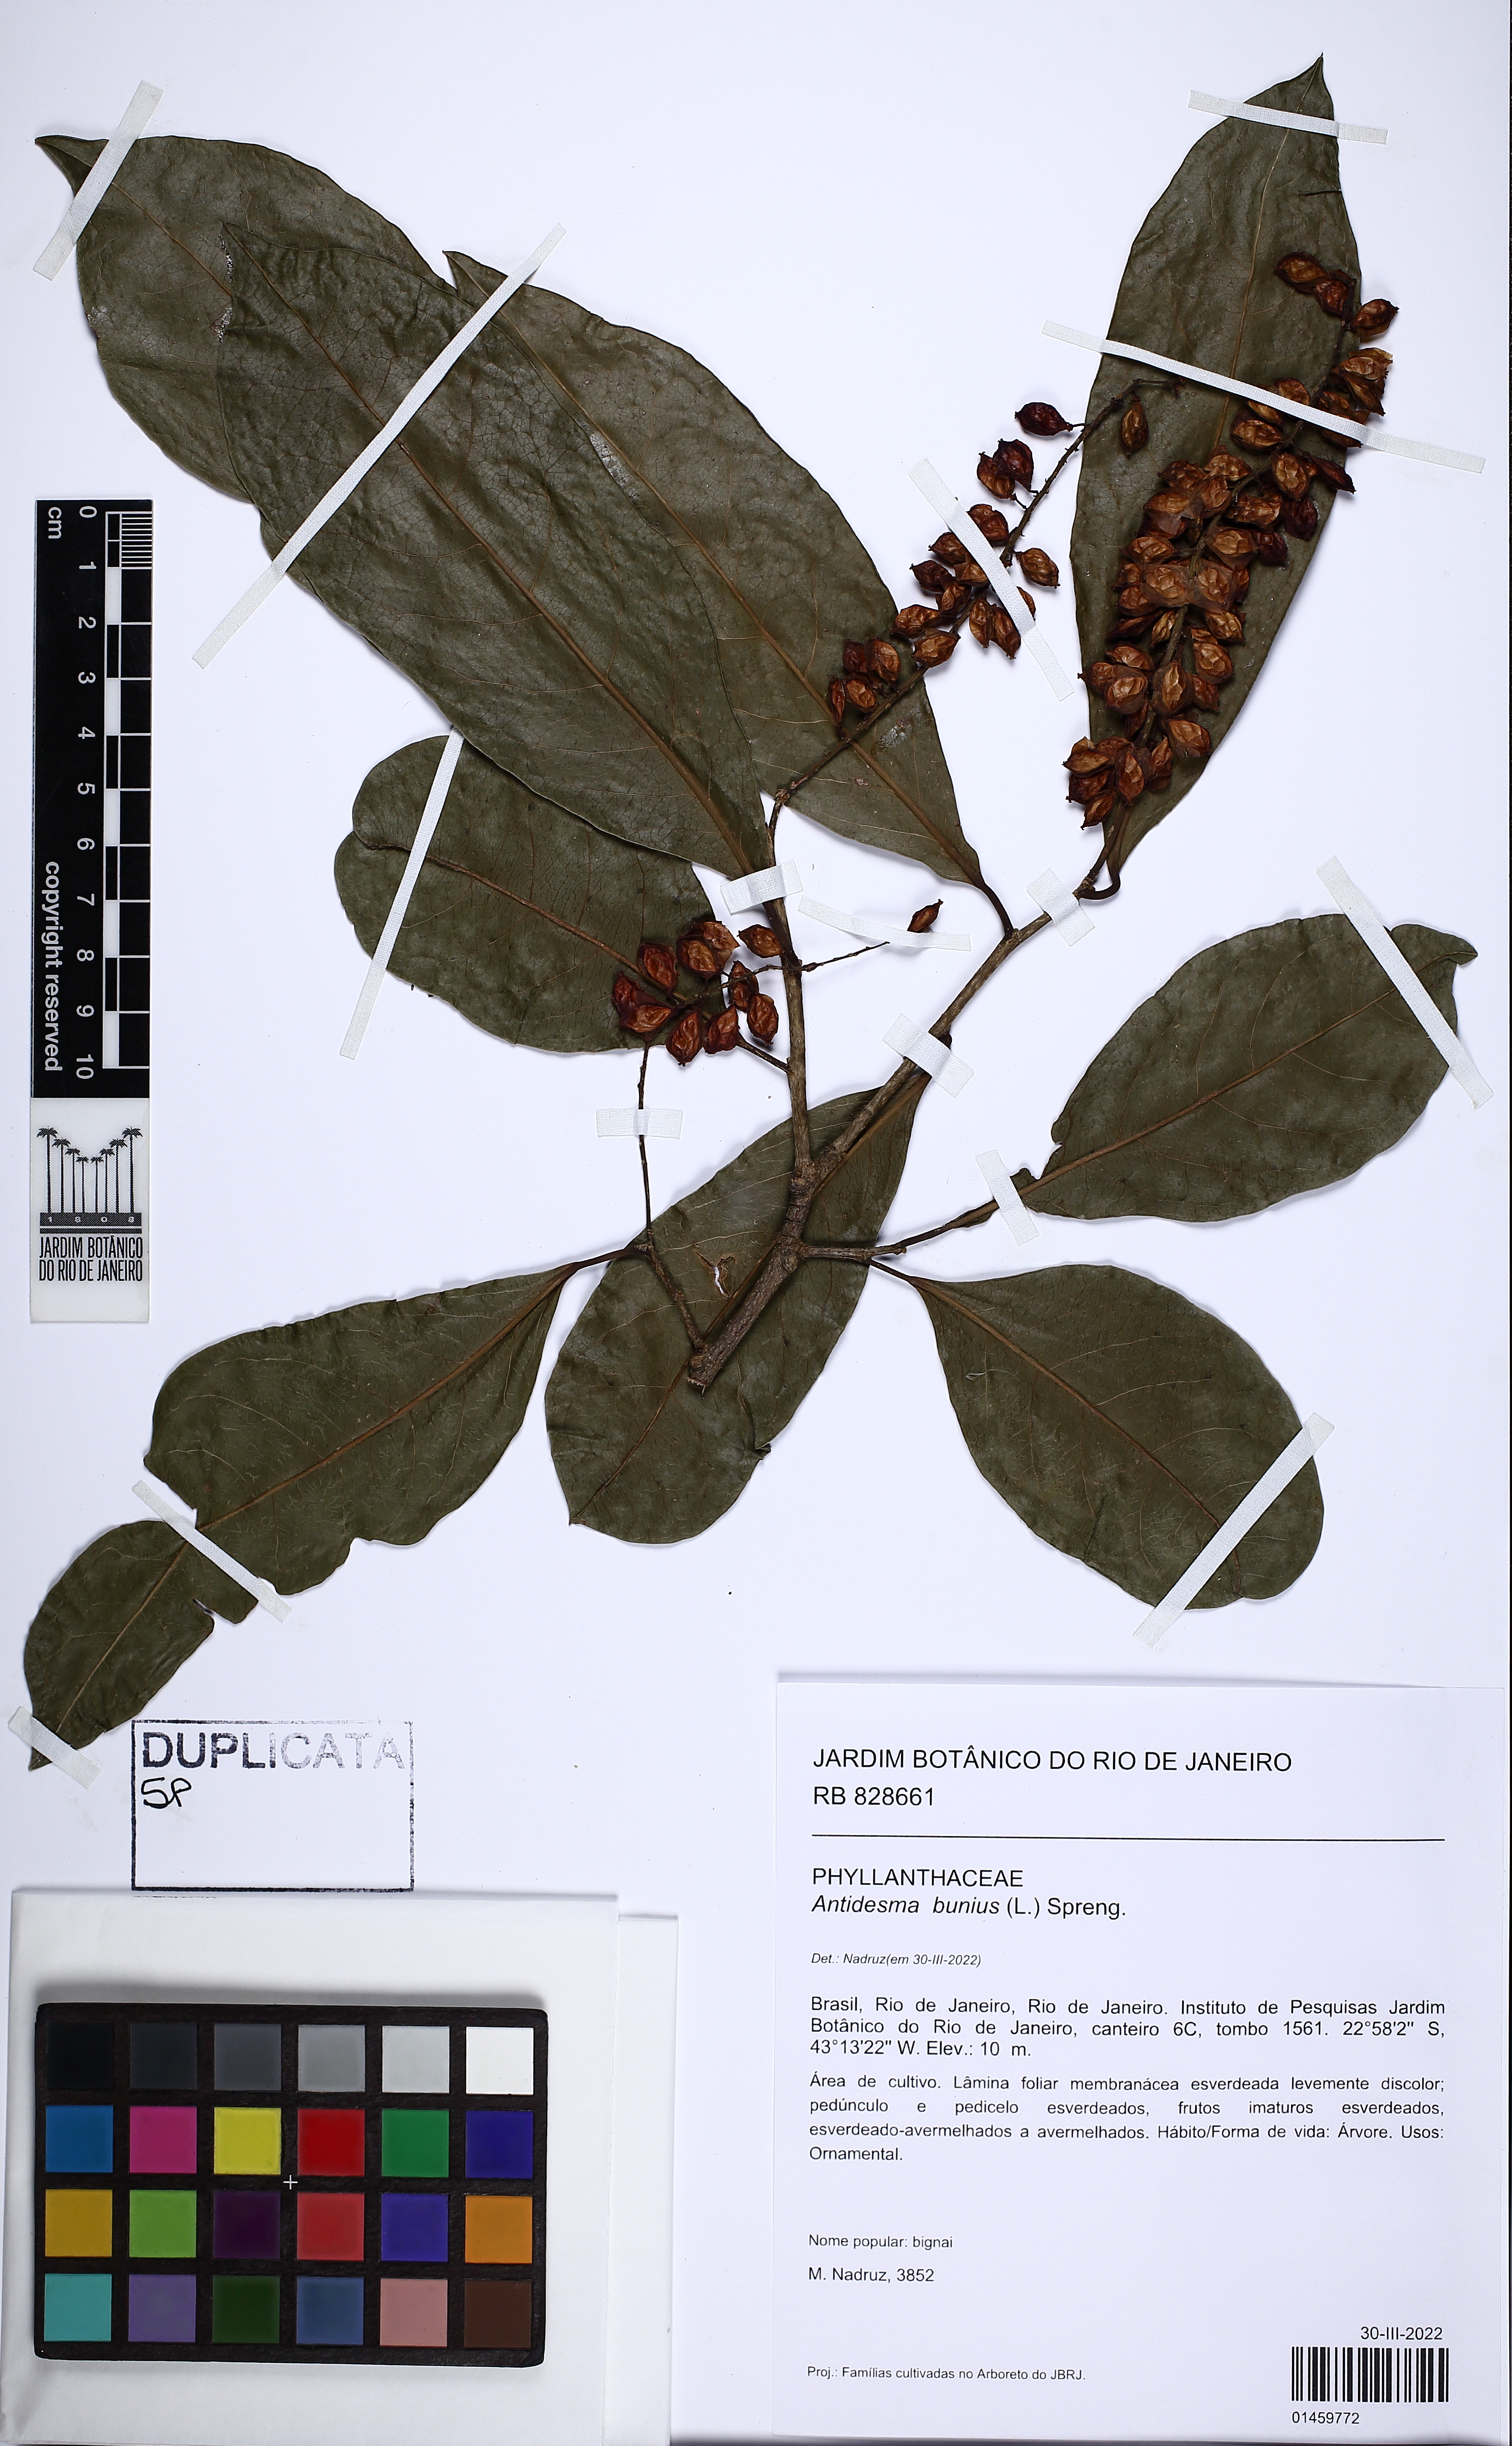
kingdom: Plantae
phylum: Tracheophyta
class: Magnoliopsida
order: Malpighiales
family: Phyllanthaceae
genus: Antidesma
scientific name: Antidesma bunius
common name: Chinese-laurel
